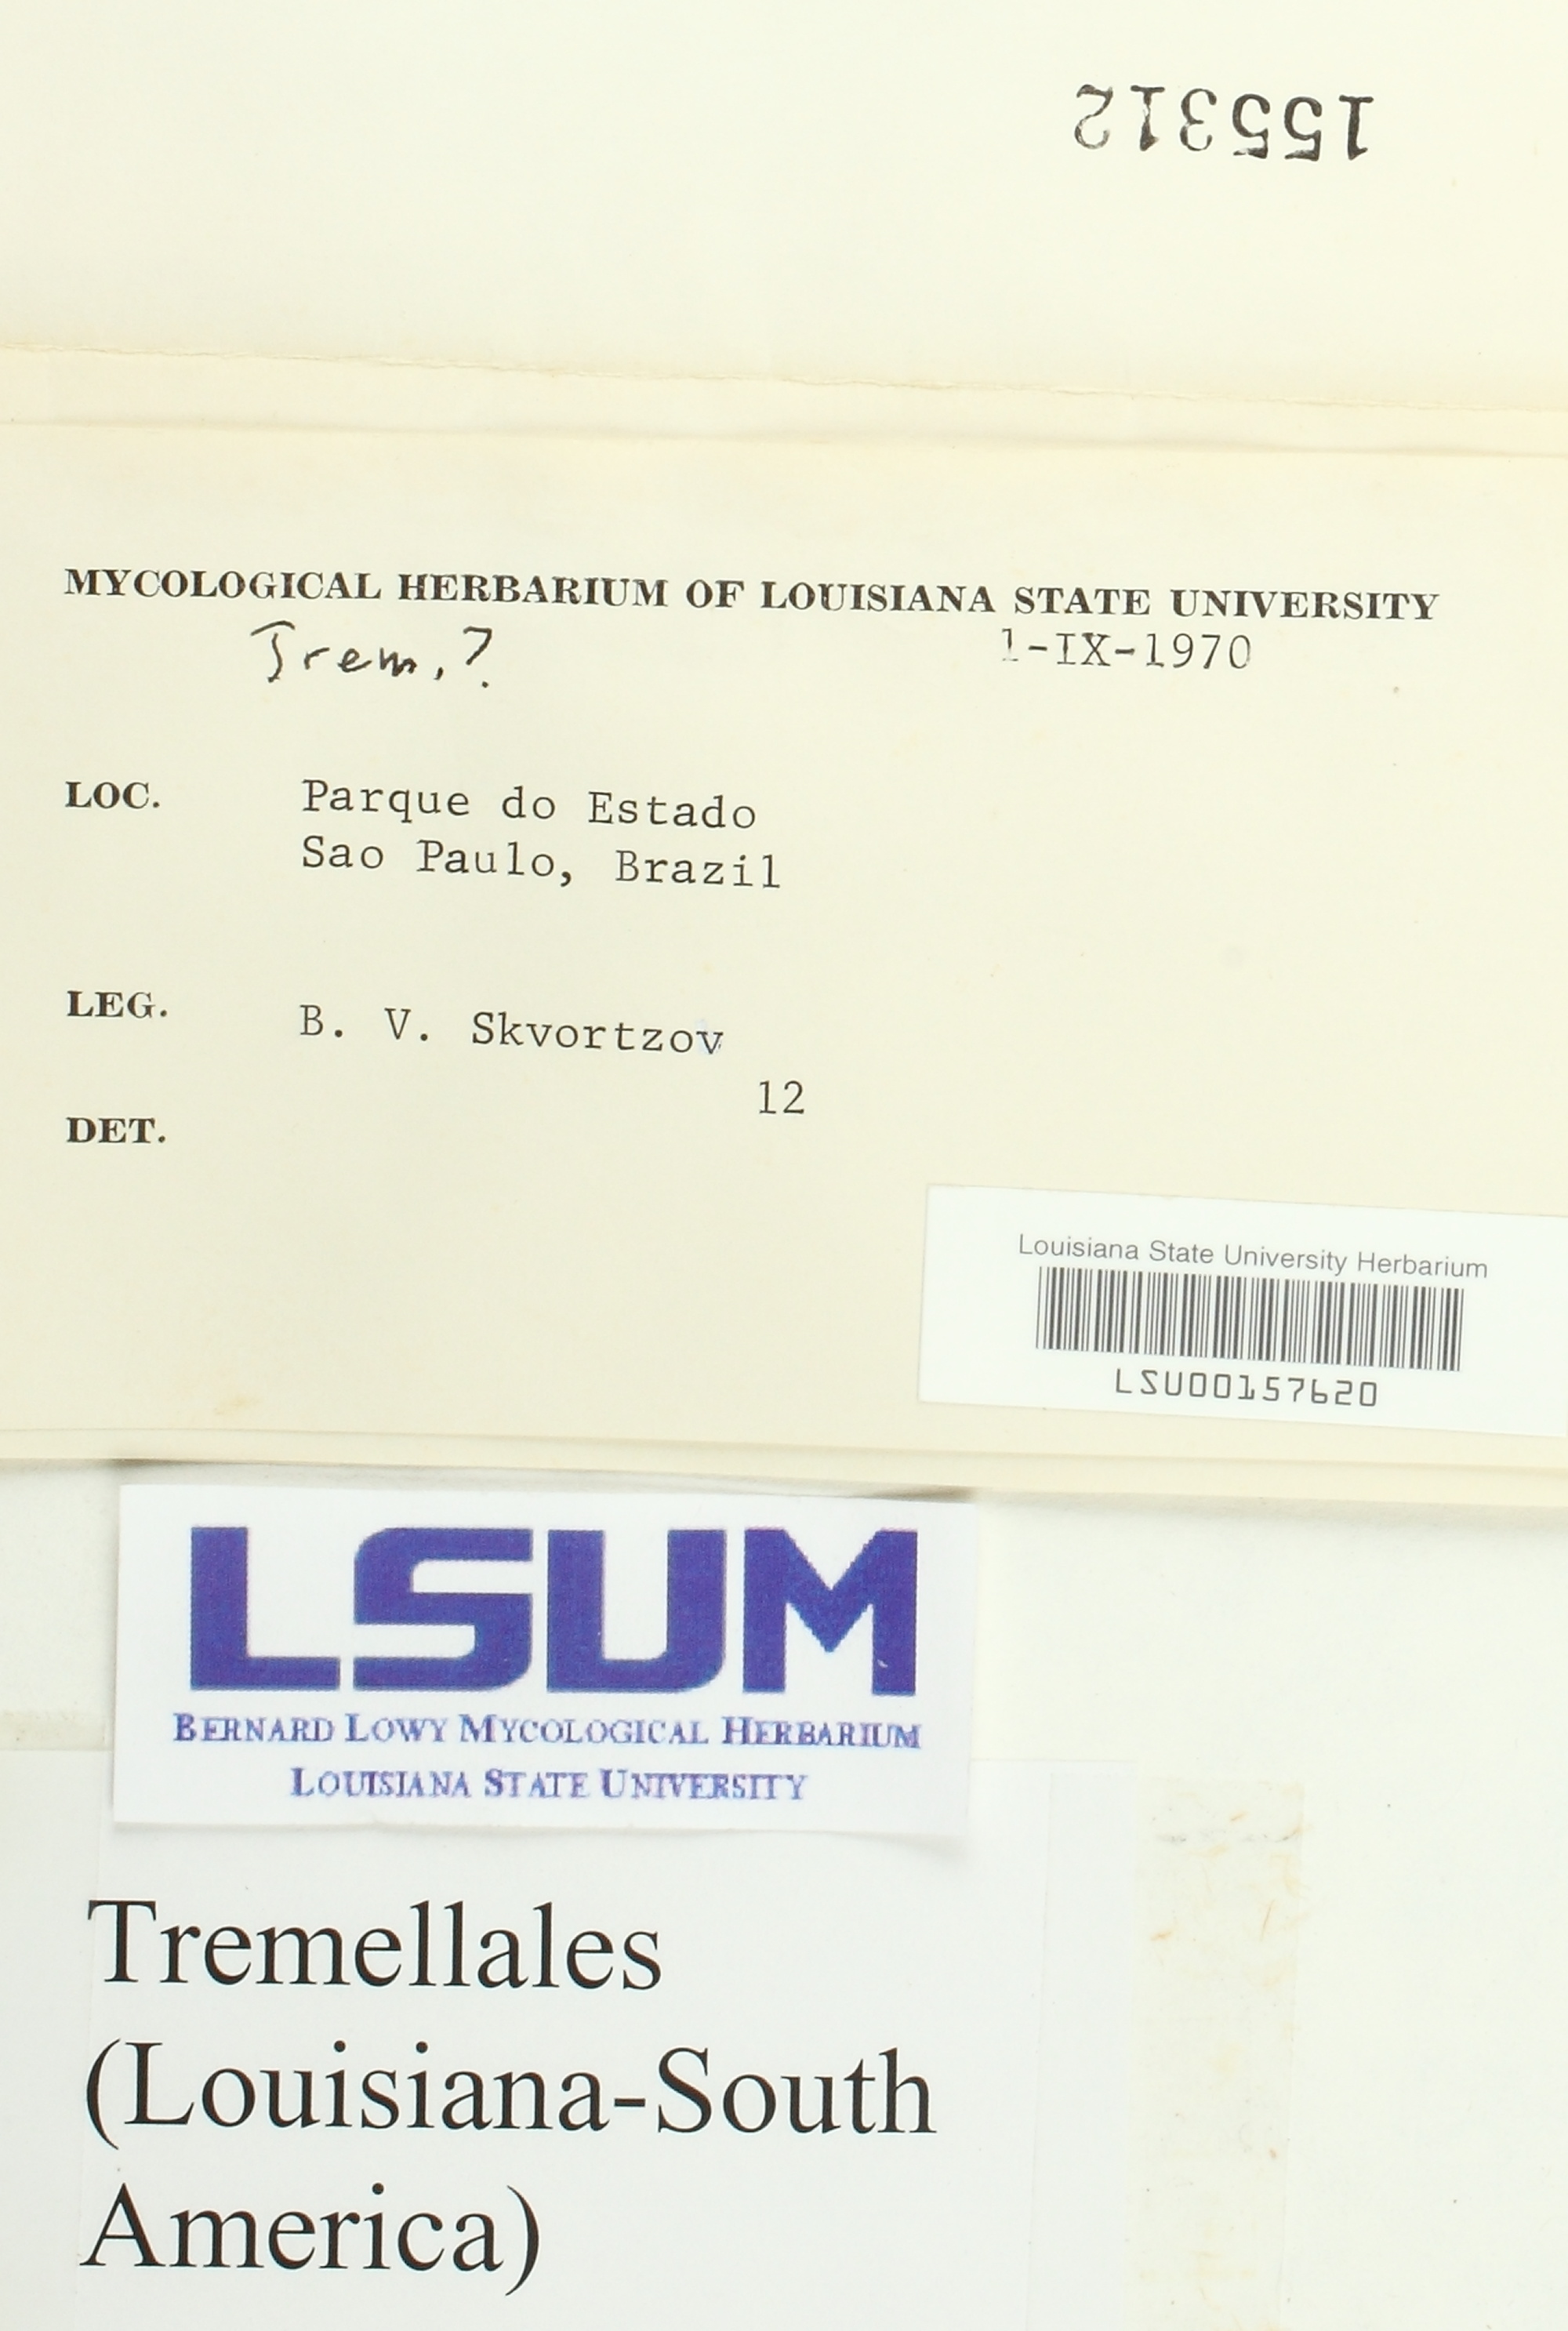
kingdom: Fungi
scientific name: Fungi
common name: Fungi
